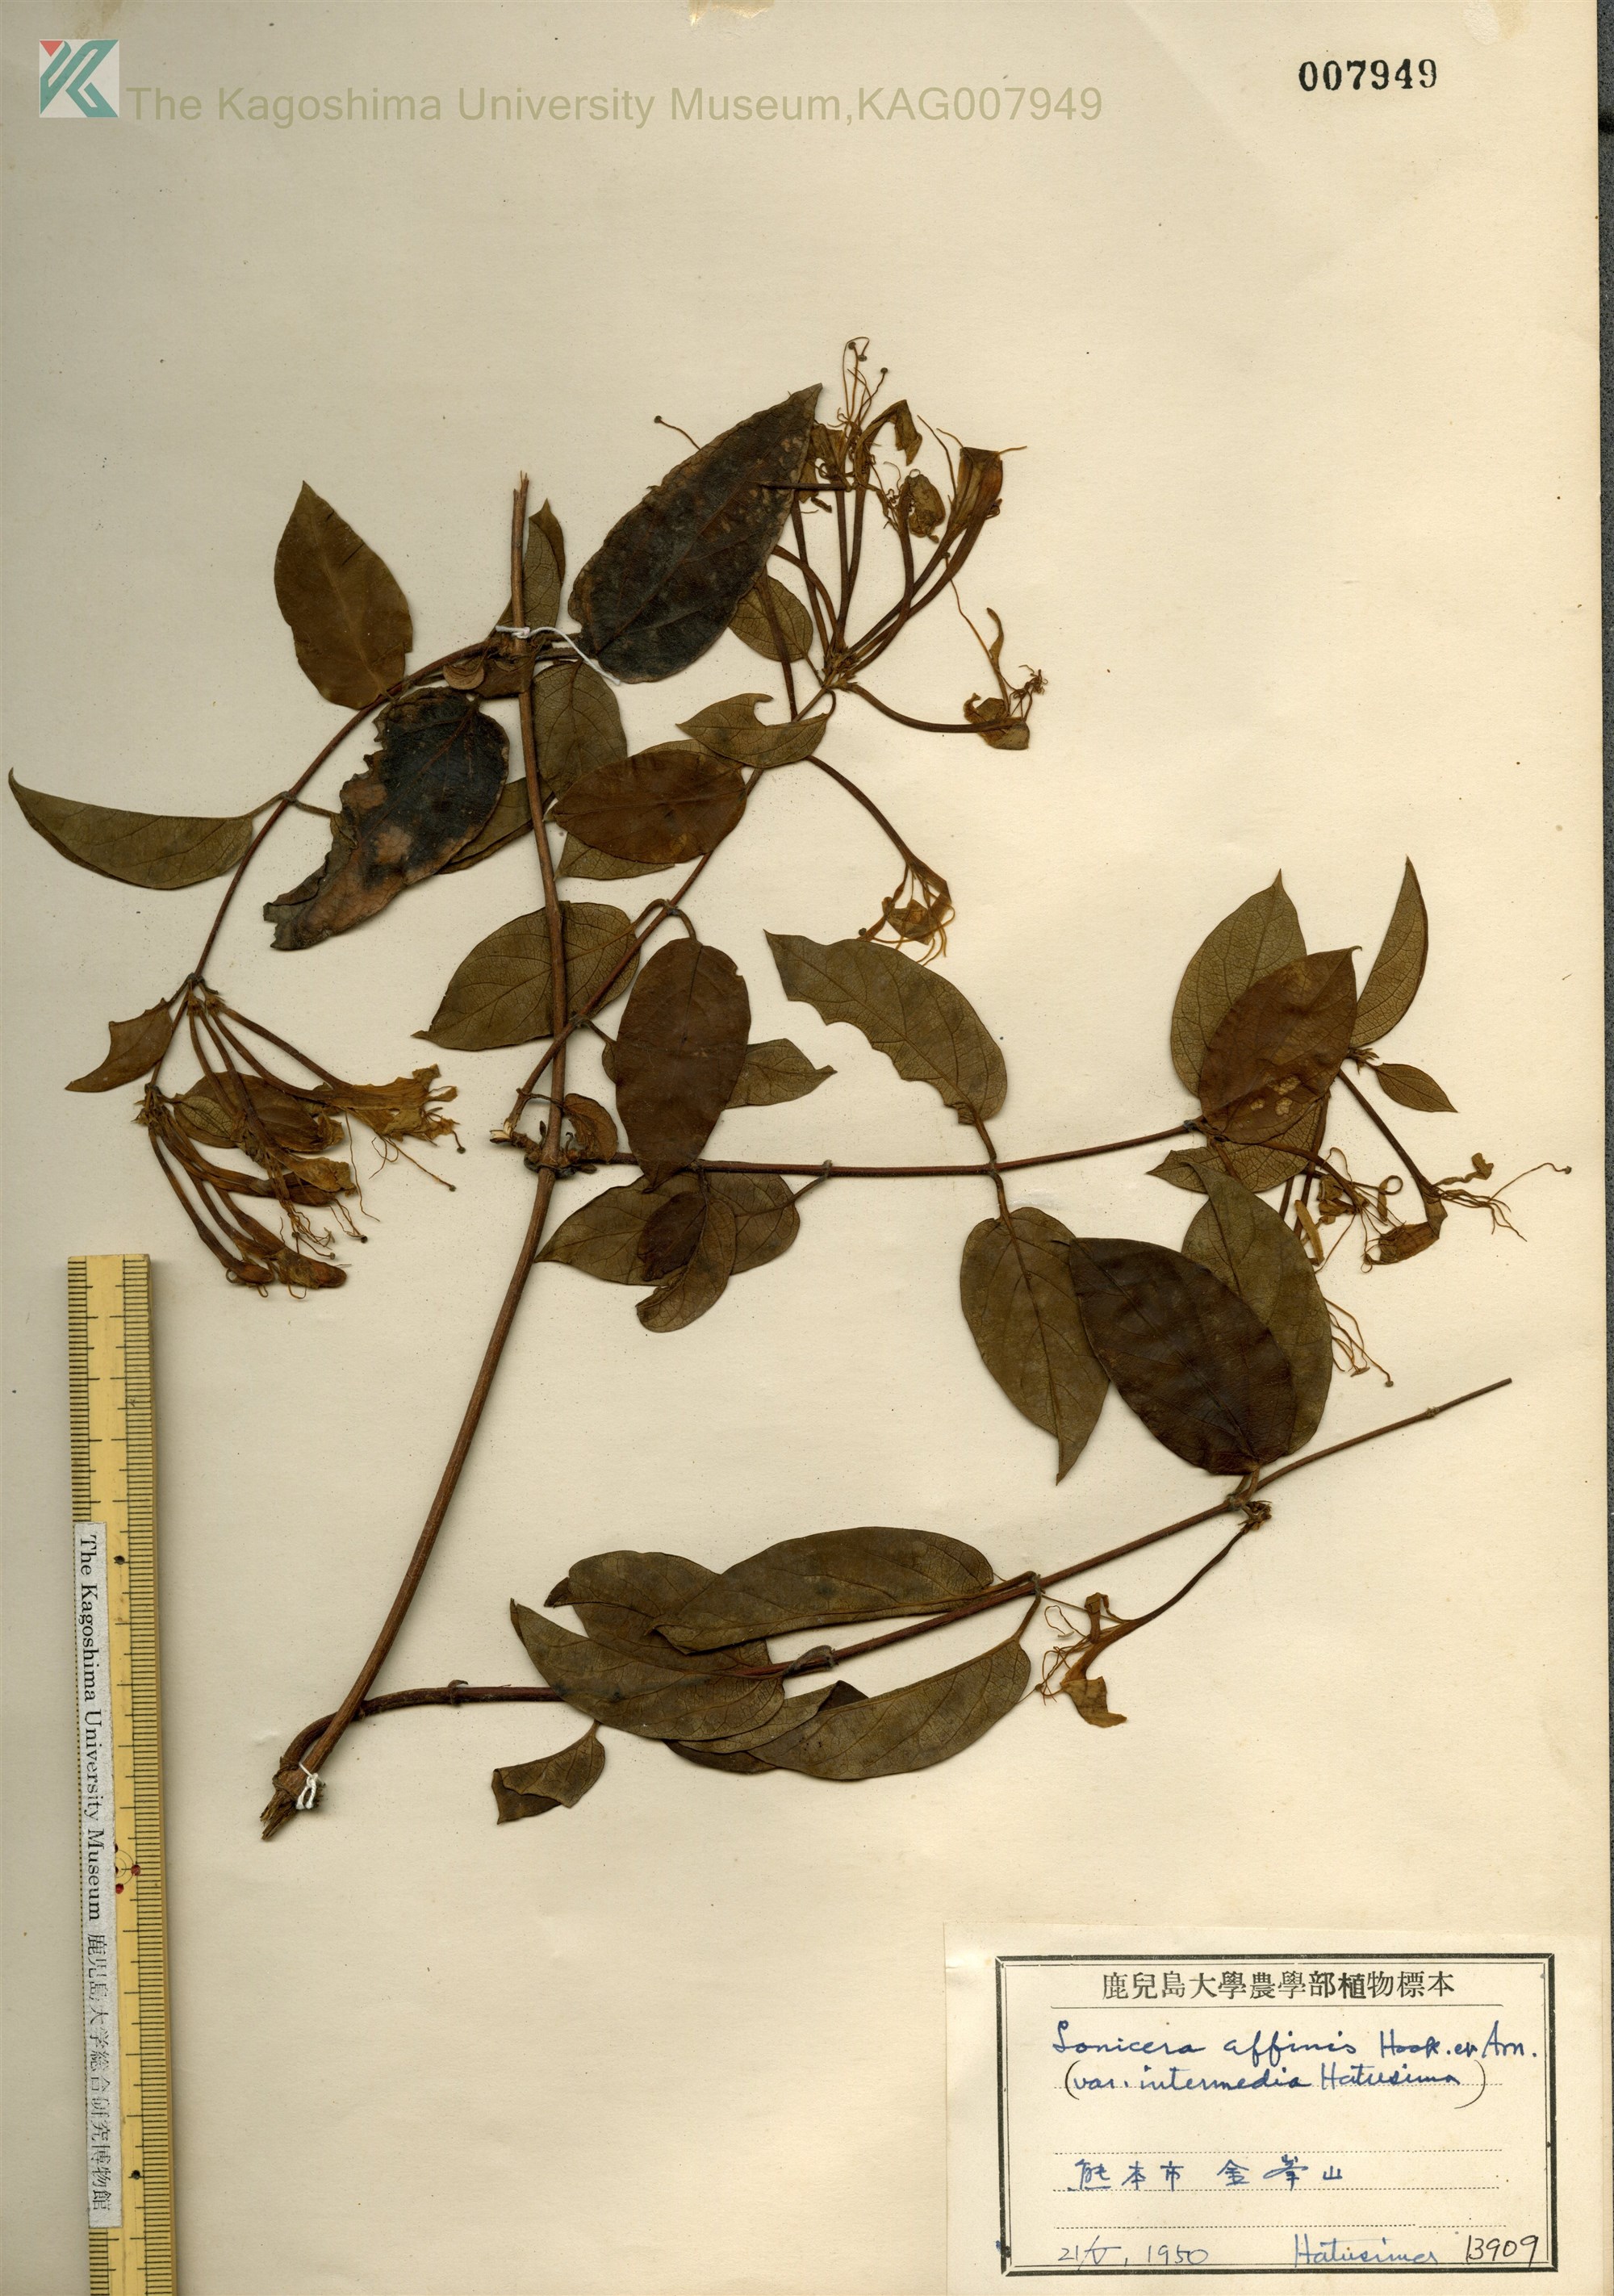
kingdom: Plantae
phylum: Tracheophyta
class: Magnoliopsida
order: Dipsacales
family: Caprifoliaceae
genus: Lonicera
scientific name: Lonicera affinis
